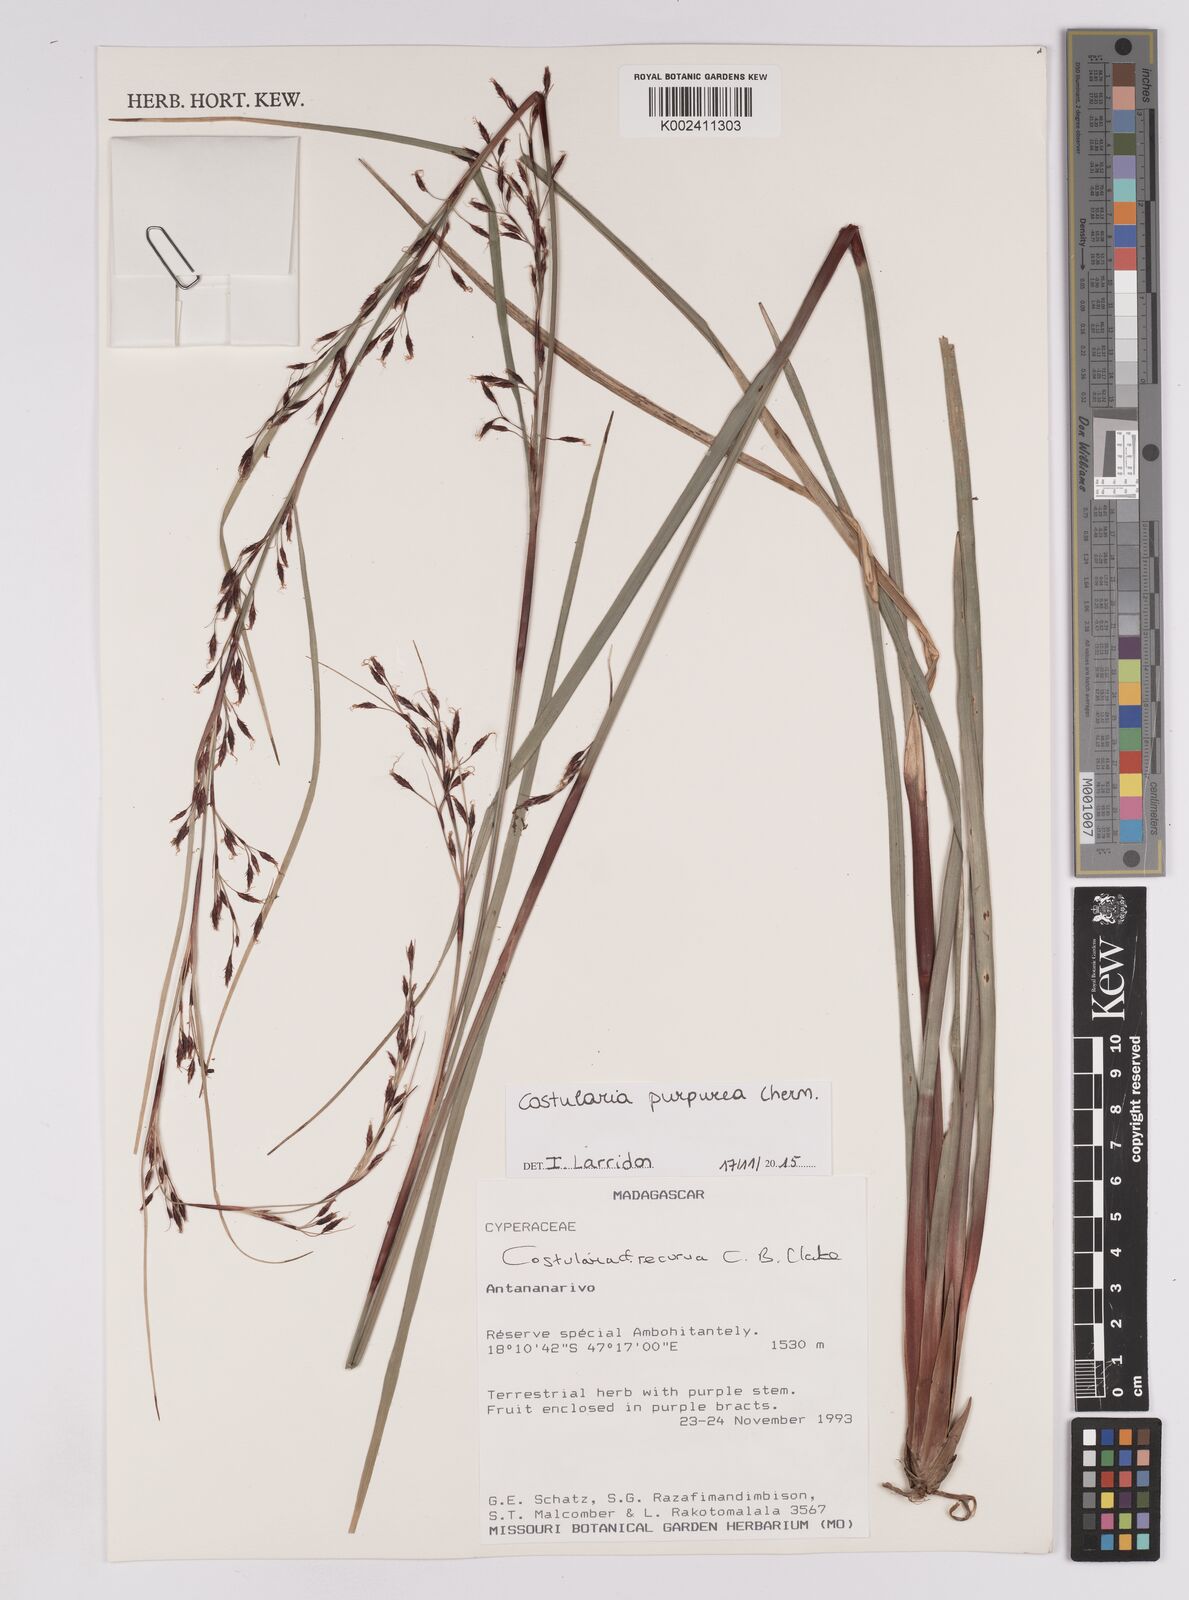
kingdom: Plantae
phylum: Tracheophyta
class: Liliopsida
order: Poales
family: Cyperaceae
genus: Costularia
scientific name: Costularia purpurea
